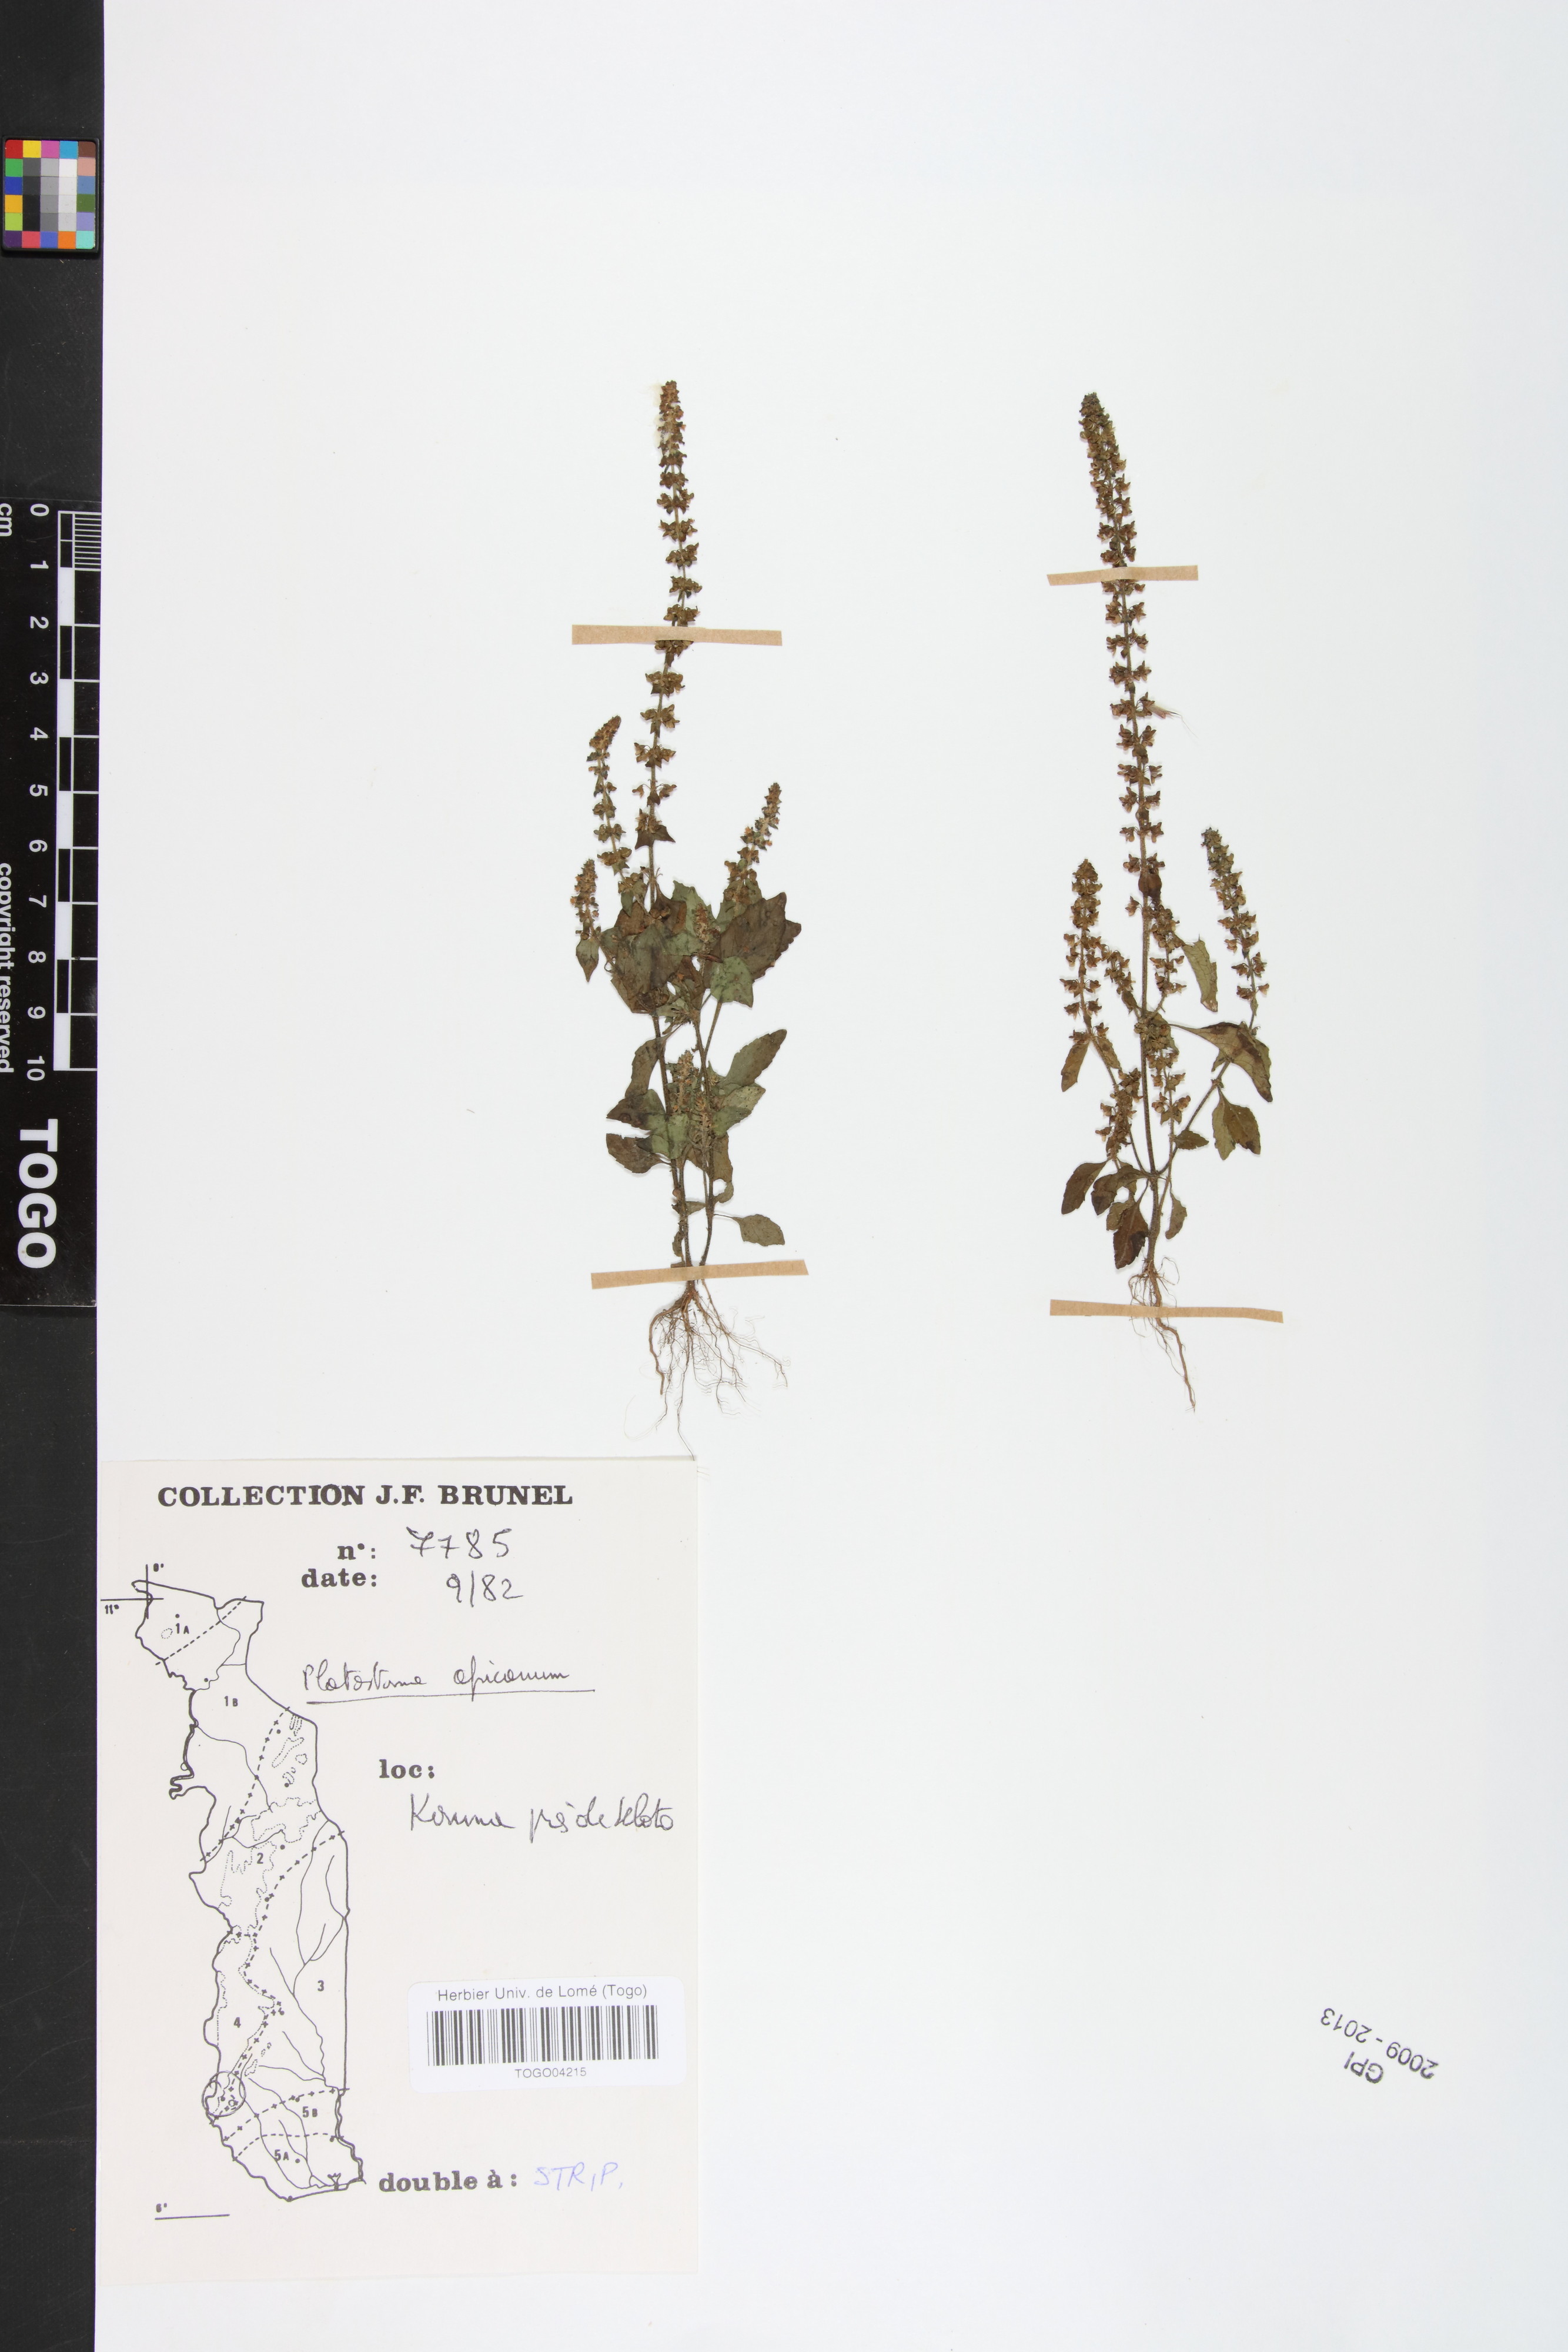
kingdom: Plantae
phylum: Tracheophyta
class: Magnoliopsida
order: Lamiales
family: Lamiaceae
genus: Platostoma
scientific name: Platostoma africanum
